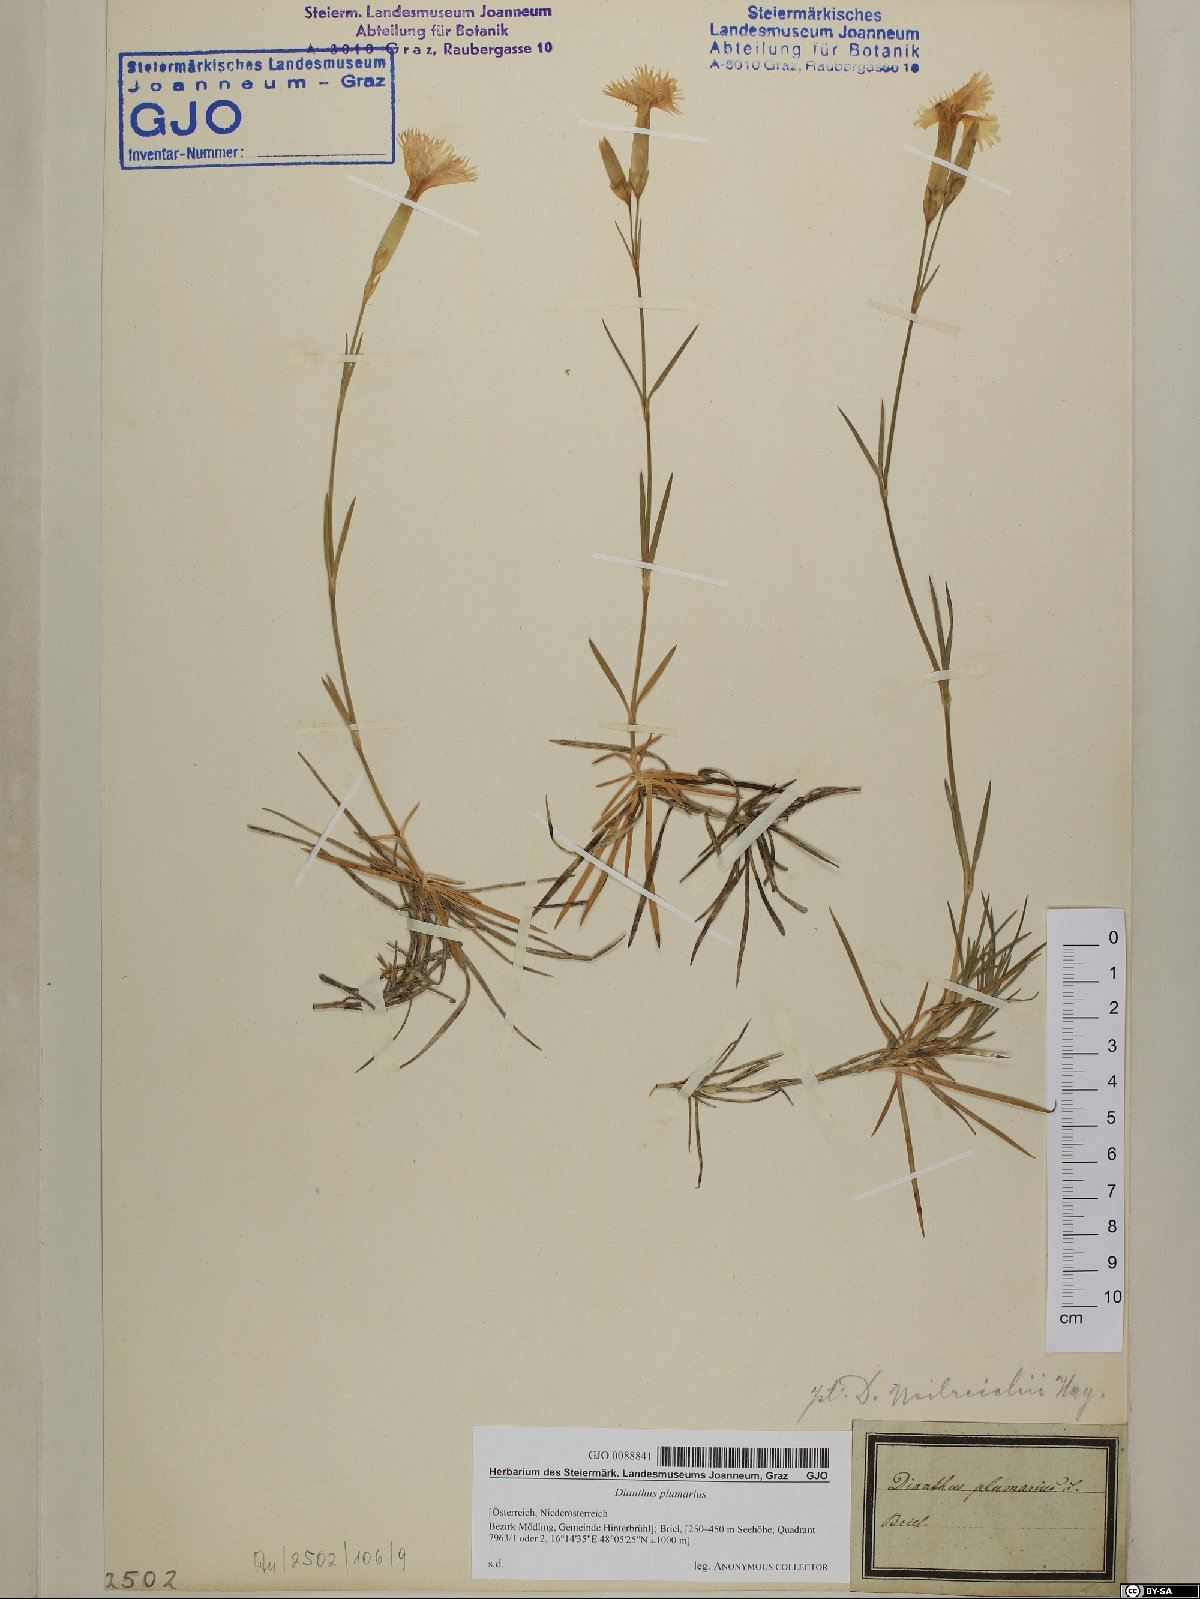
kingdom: Plantae
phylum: Tracheophyta
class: Magnoliopsida
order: Caryophyllales
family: Caryophyllaceae
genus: Dianthus
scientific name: Dianthus plumarius
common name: Pink
